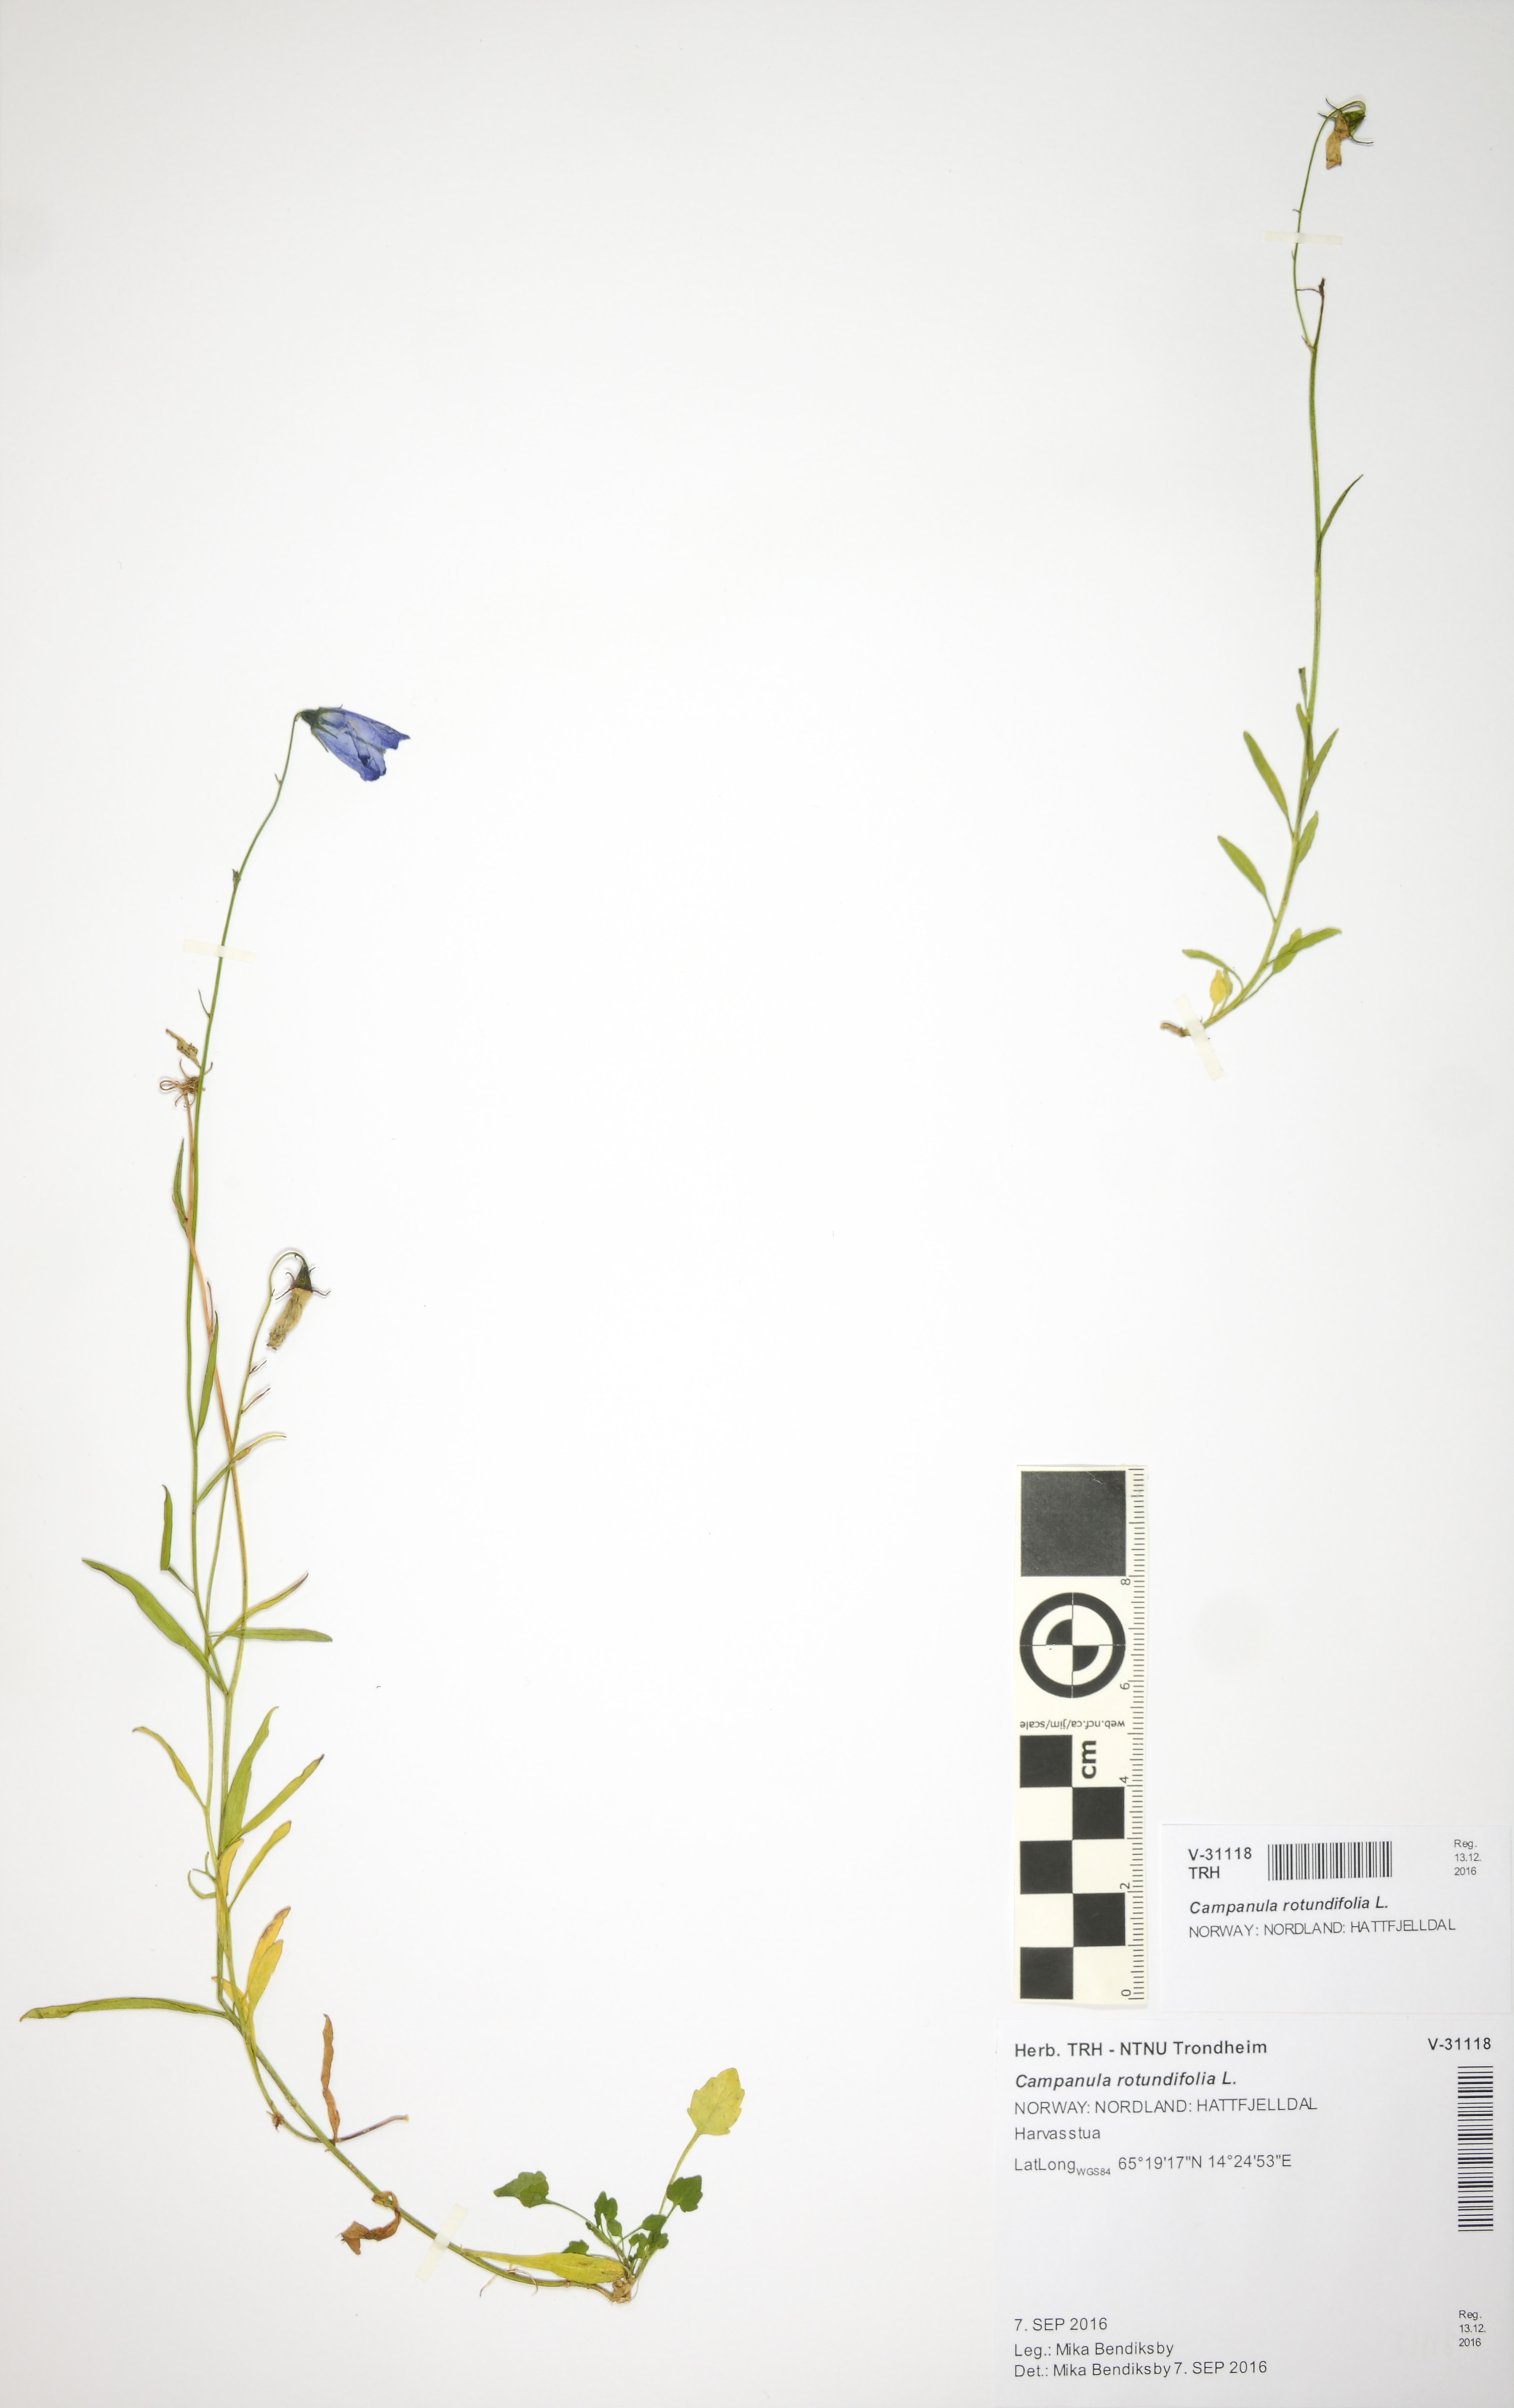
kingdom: Plantae
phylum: Tracheophyta
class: Magnoliopsida
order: Asterales
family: Campanulaceae
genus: Campanula
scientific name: Campanula rotundifolia
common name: Harebell
